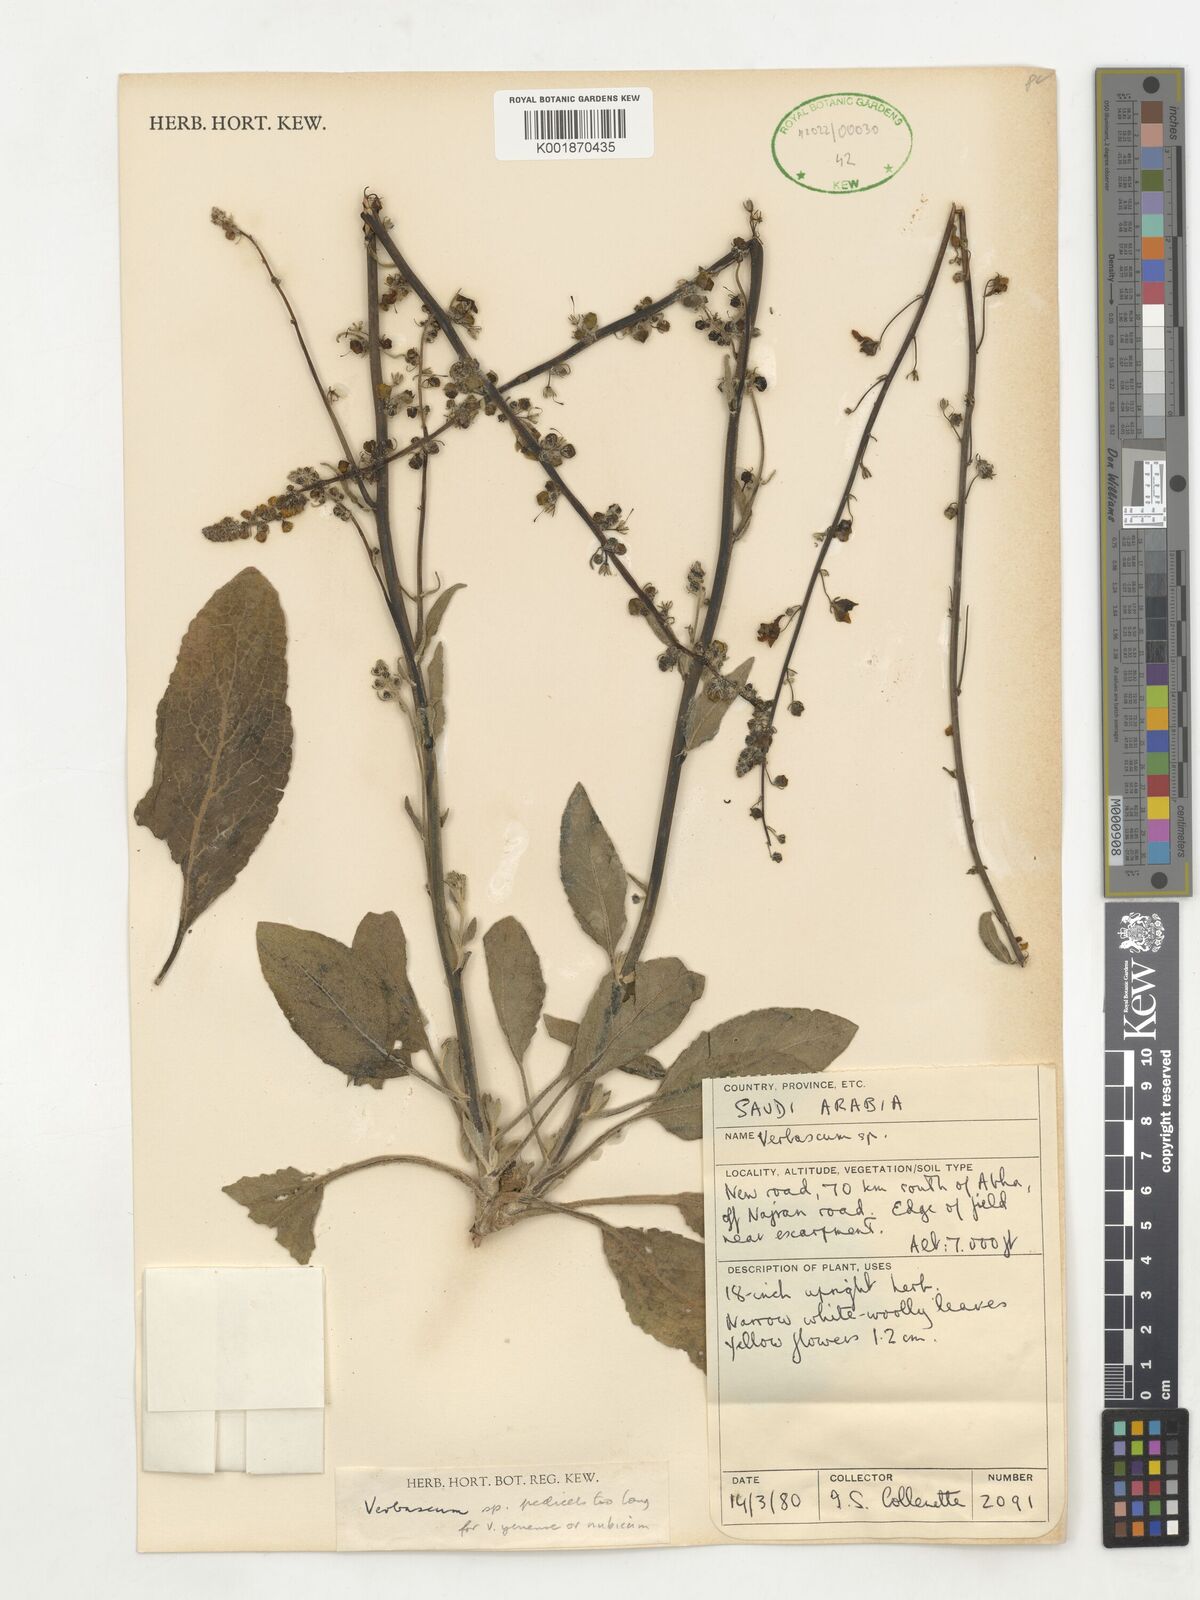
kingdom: Plantae
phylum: Tracheophyta
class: Magnoliopsida
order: Lamiales
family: Scrophulariaceae
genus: Verbascum
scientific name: Verbascum
